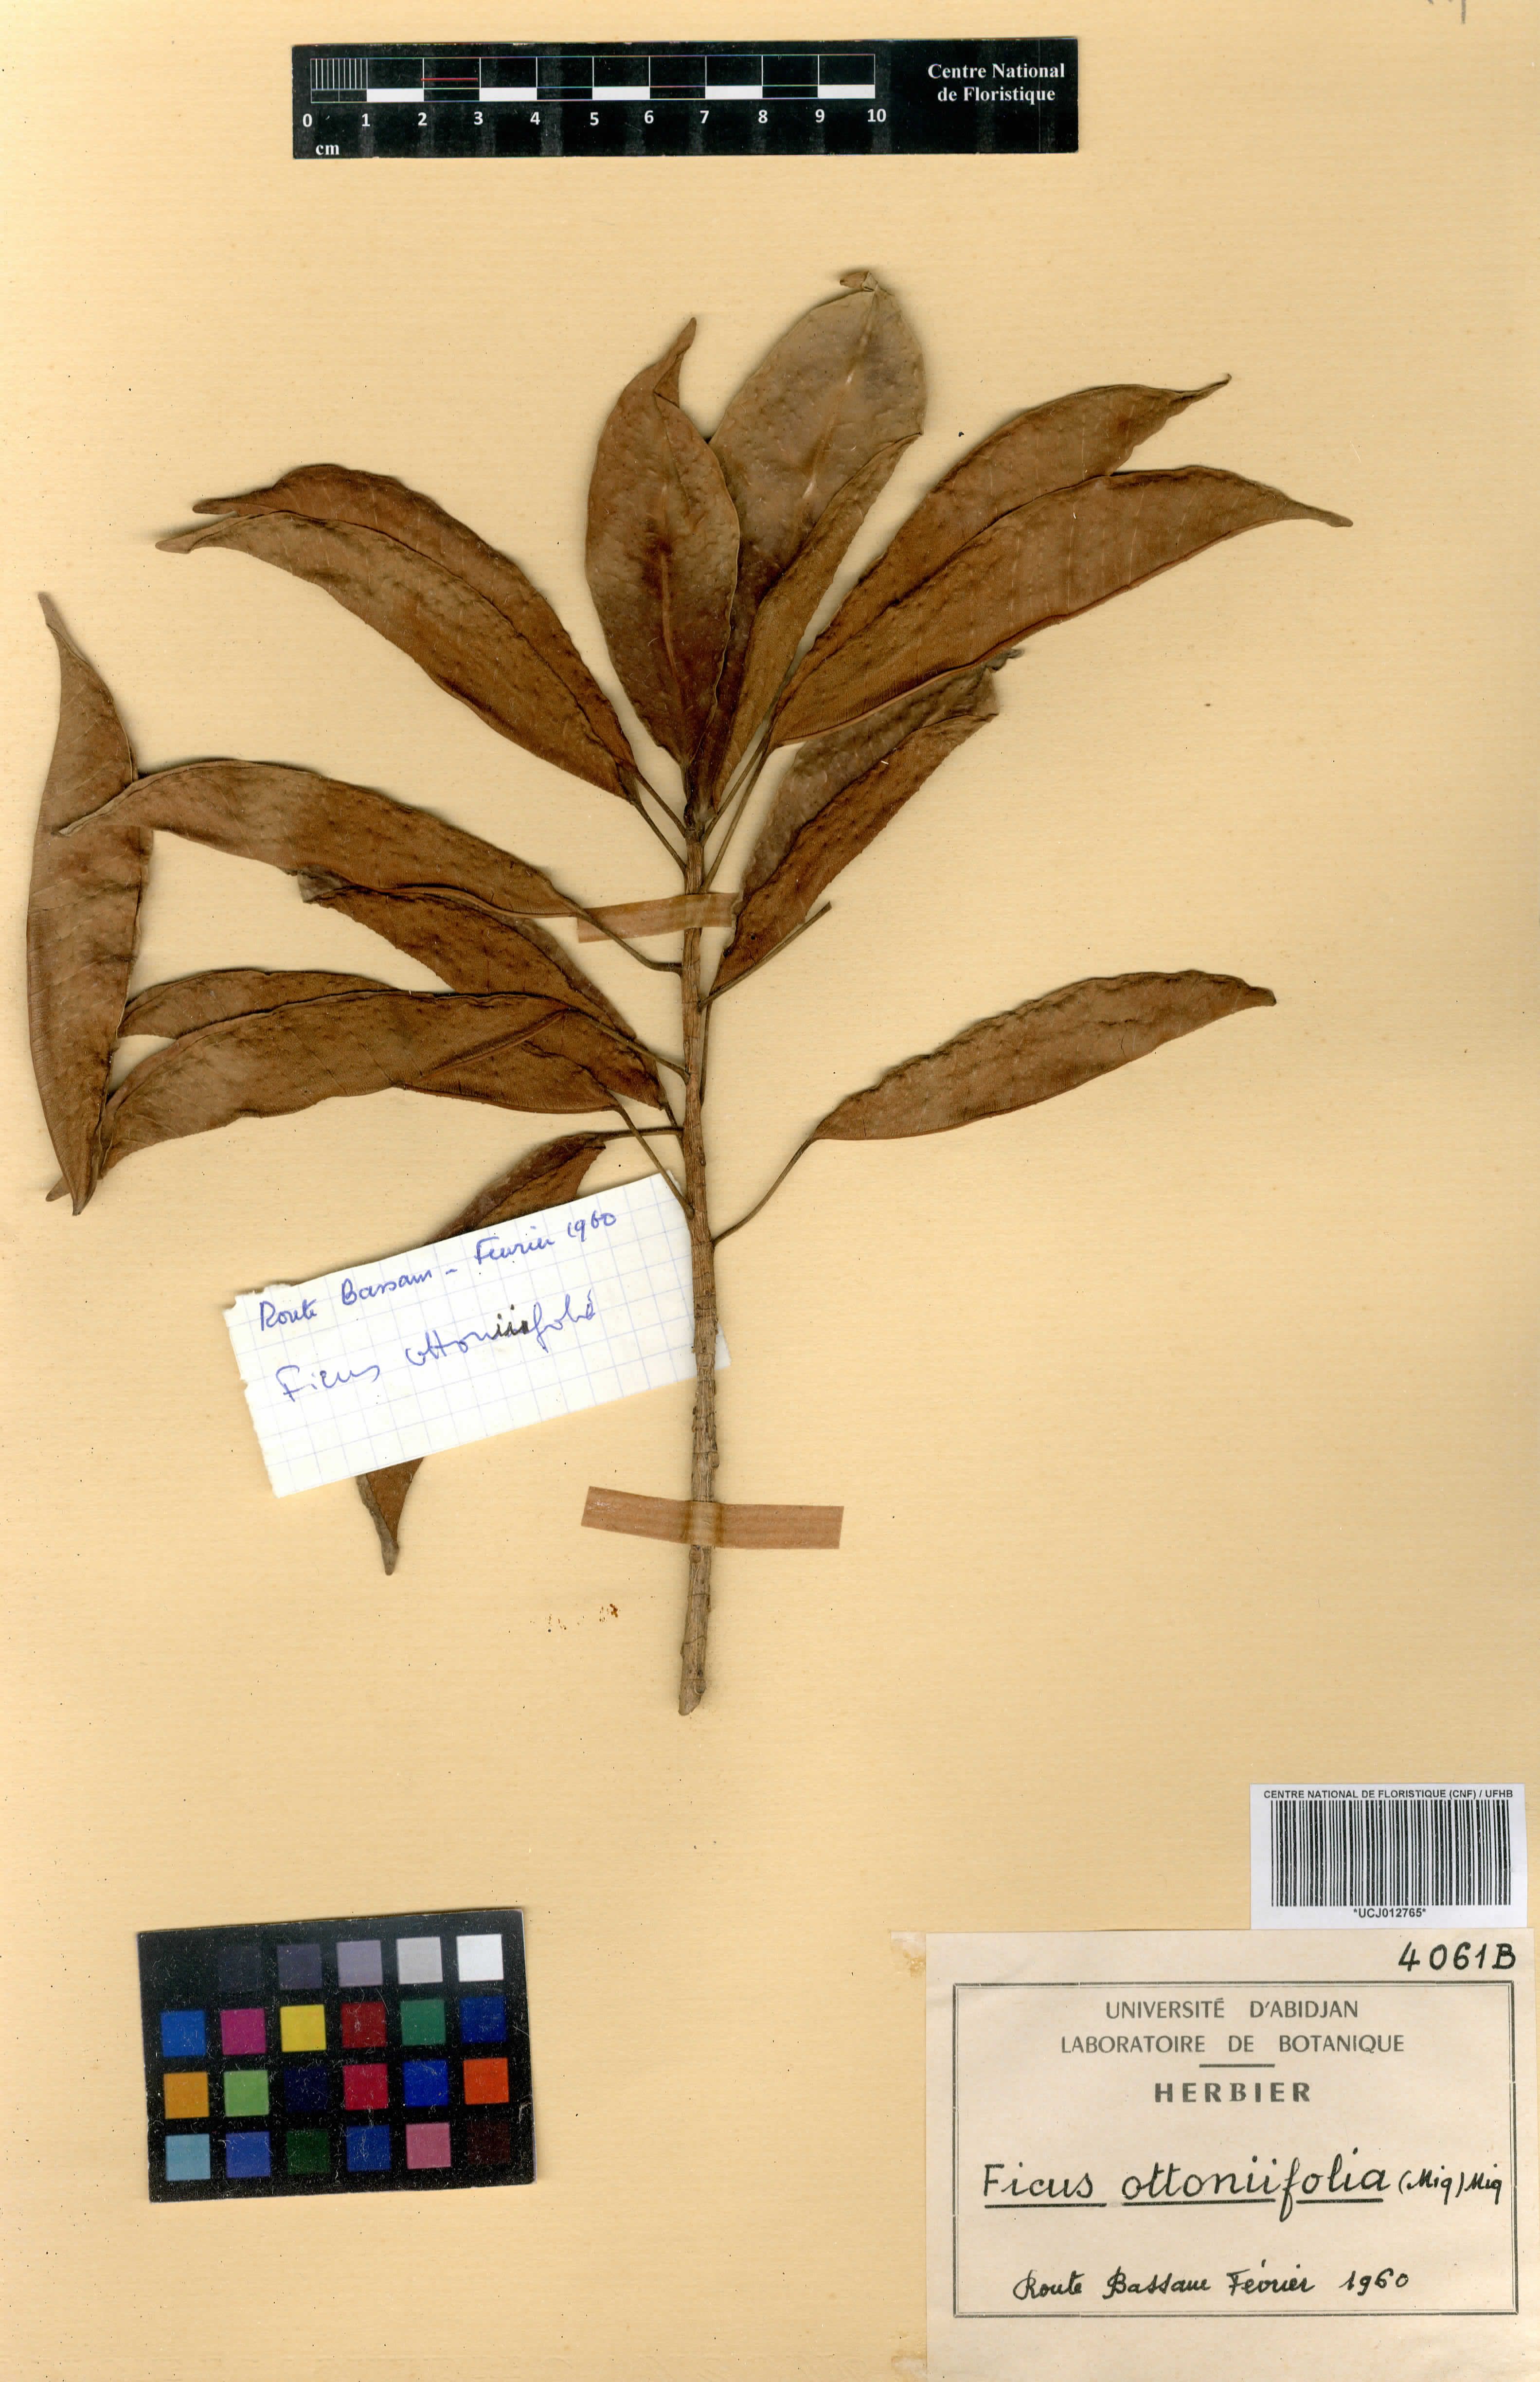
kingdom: Plantae
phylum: Tracheophyta
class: Magnoliopsida
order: Rosales
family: Moraceae
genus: Ficus
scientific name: Ficus ottoniifolia
